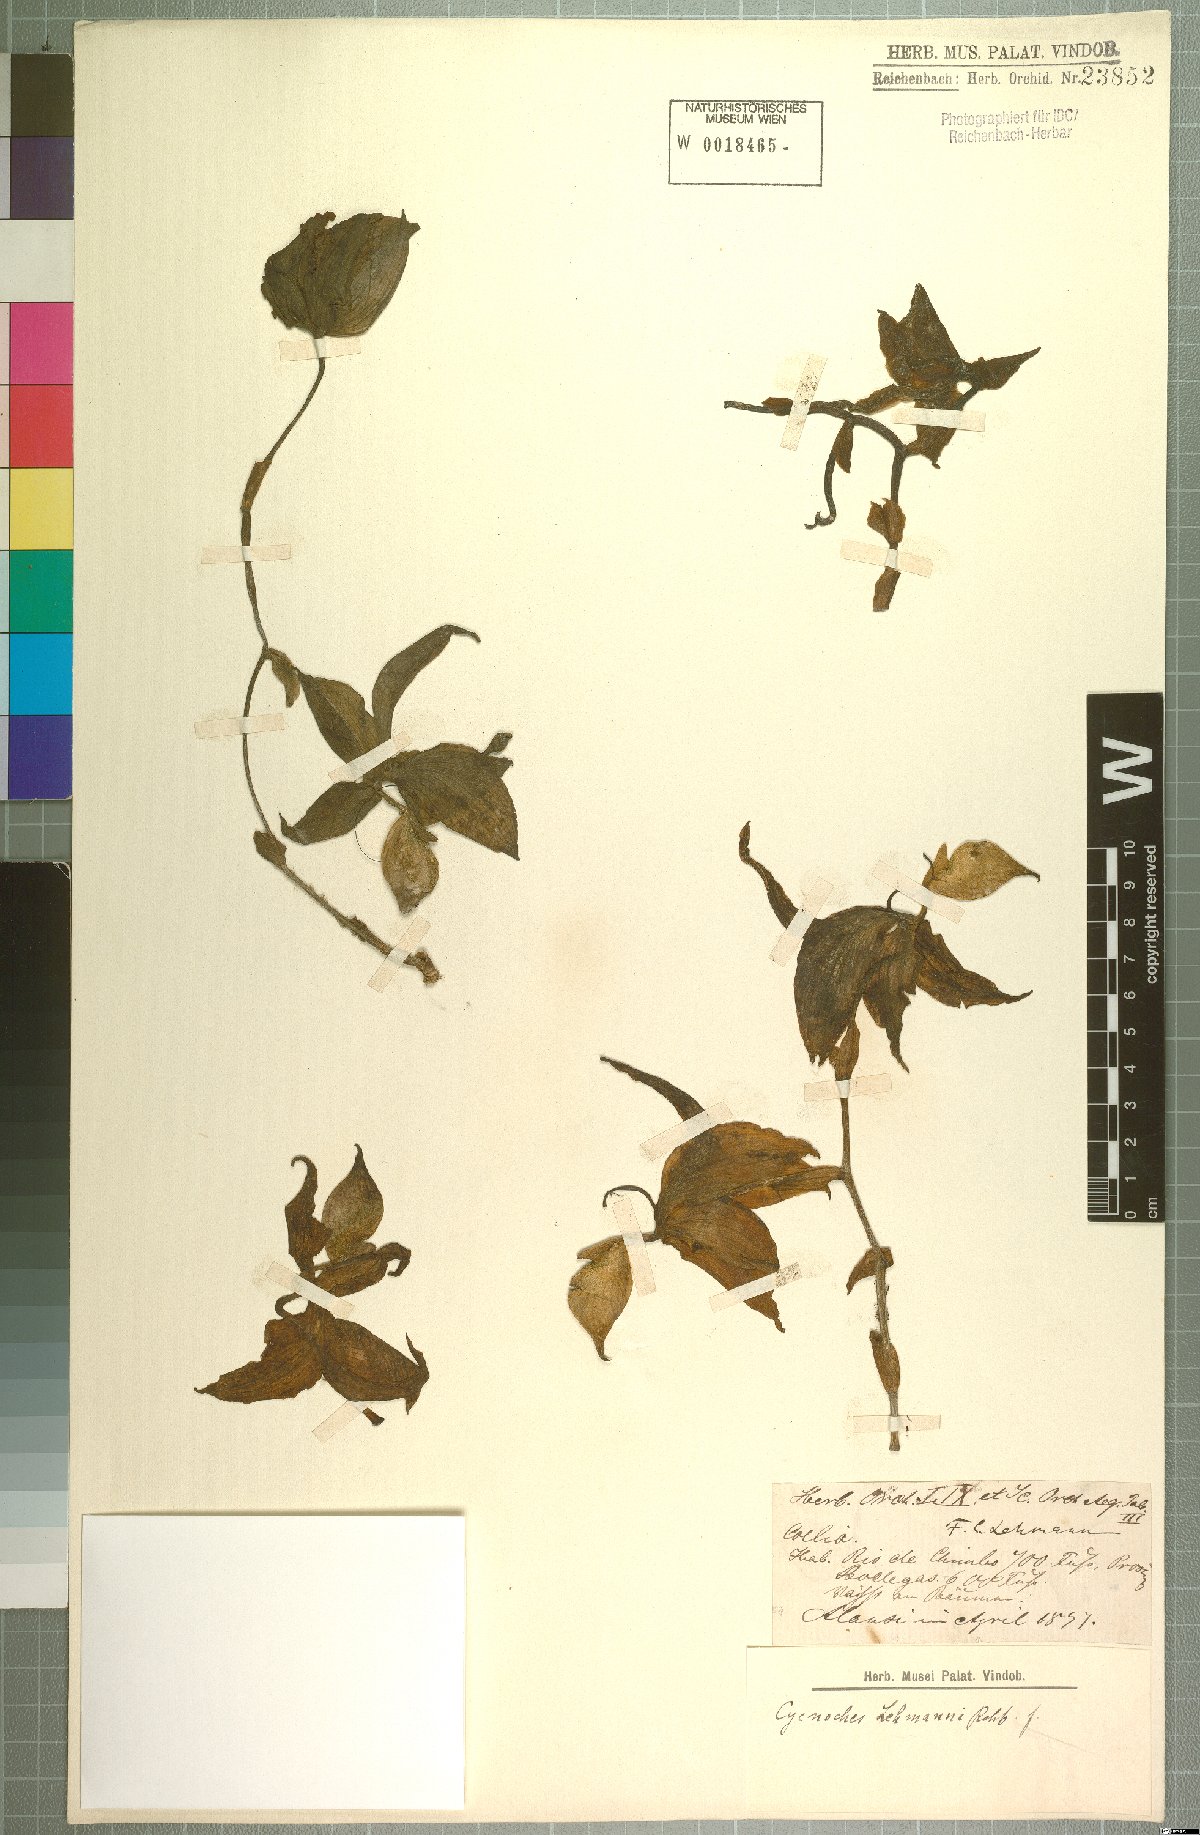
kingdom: Plantae
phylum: Tracheophyta
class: Liliopsida
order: Asparagales
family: Orchidaceae
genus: Cycnoches
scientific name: Cycnoches lehmannii
